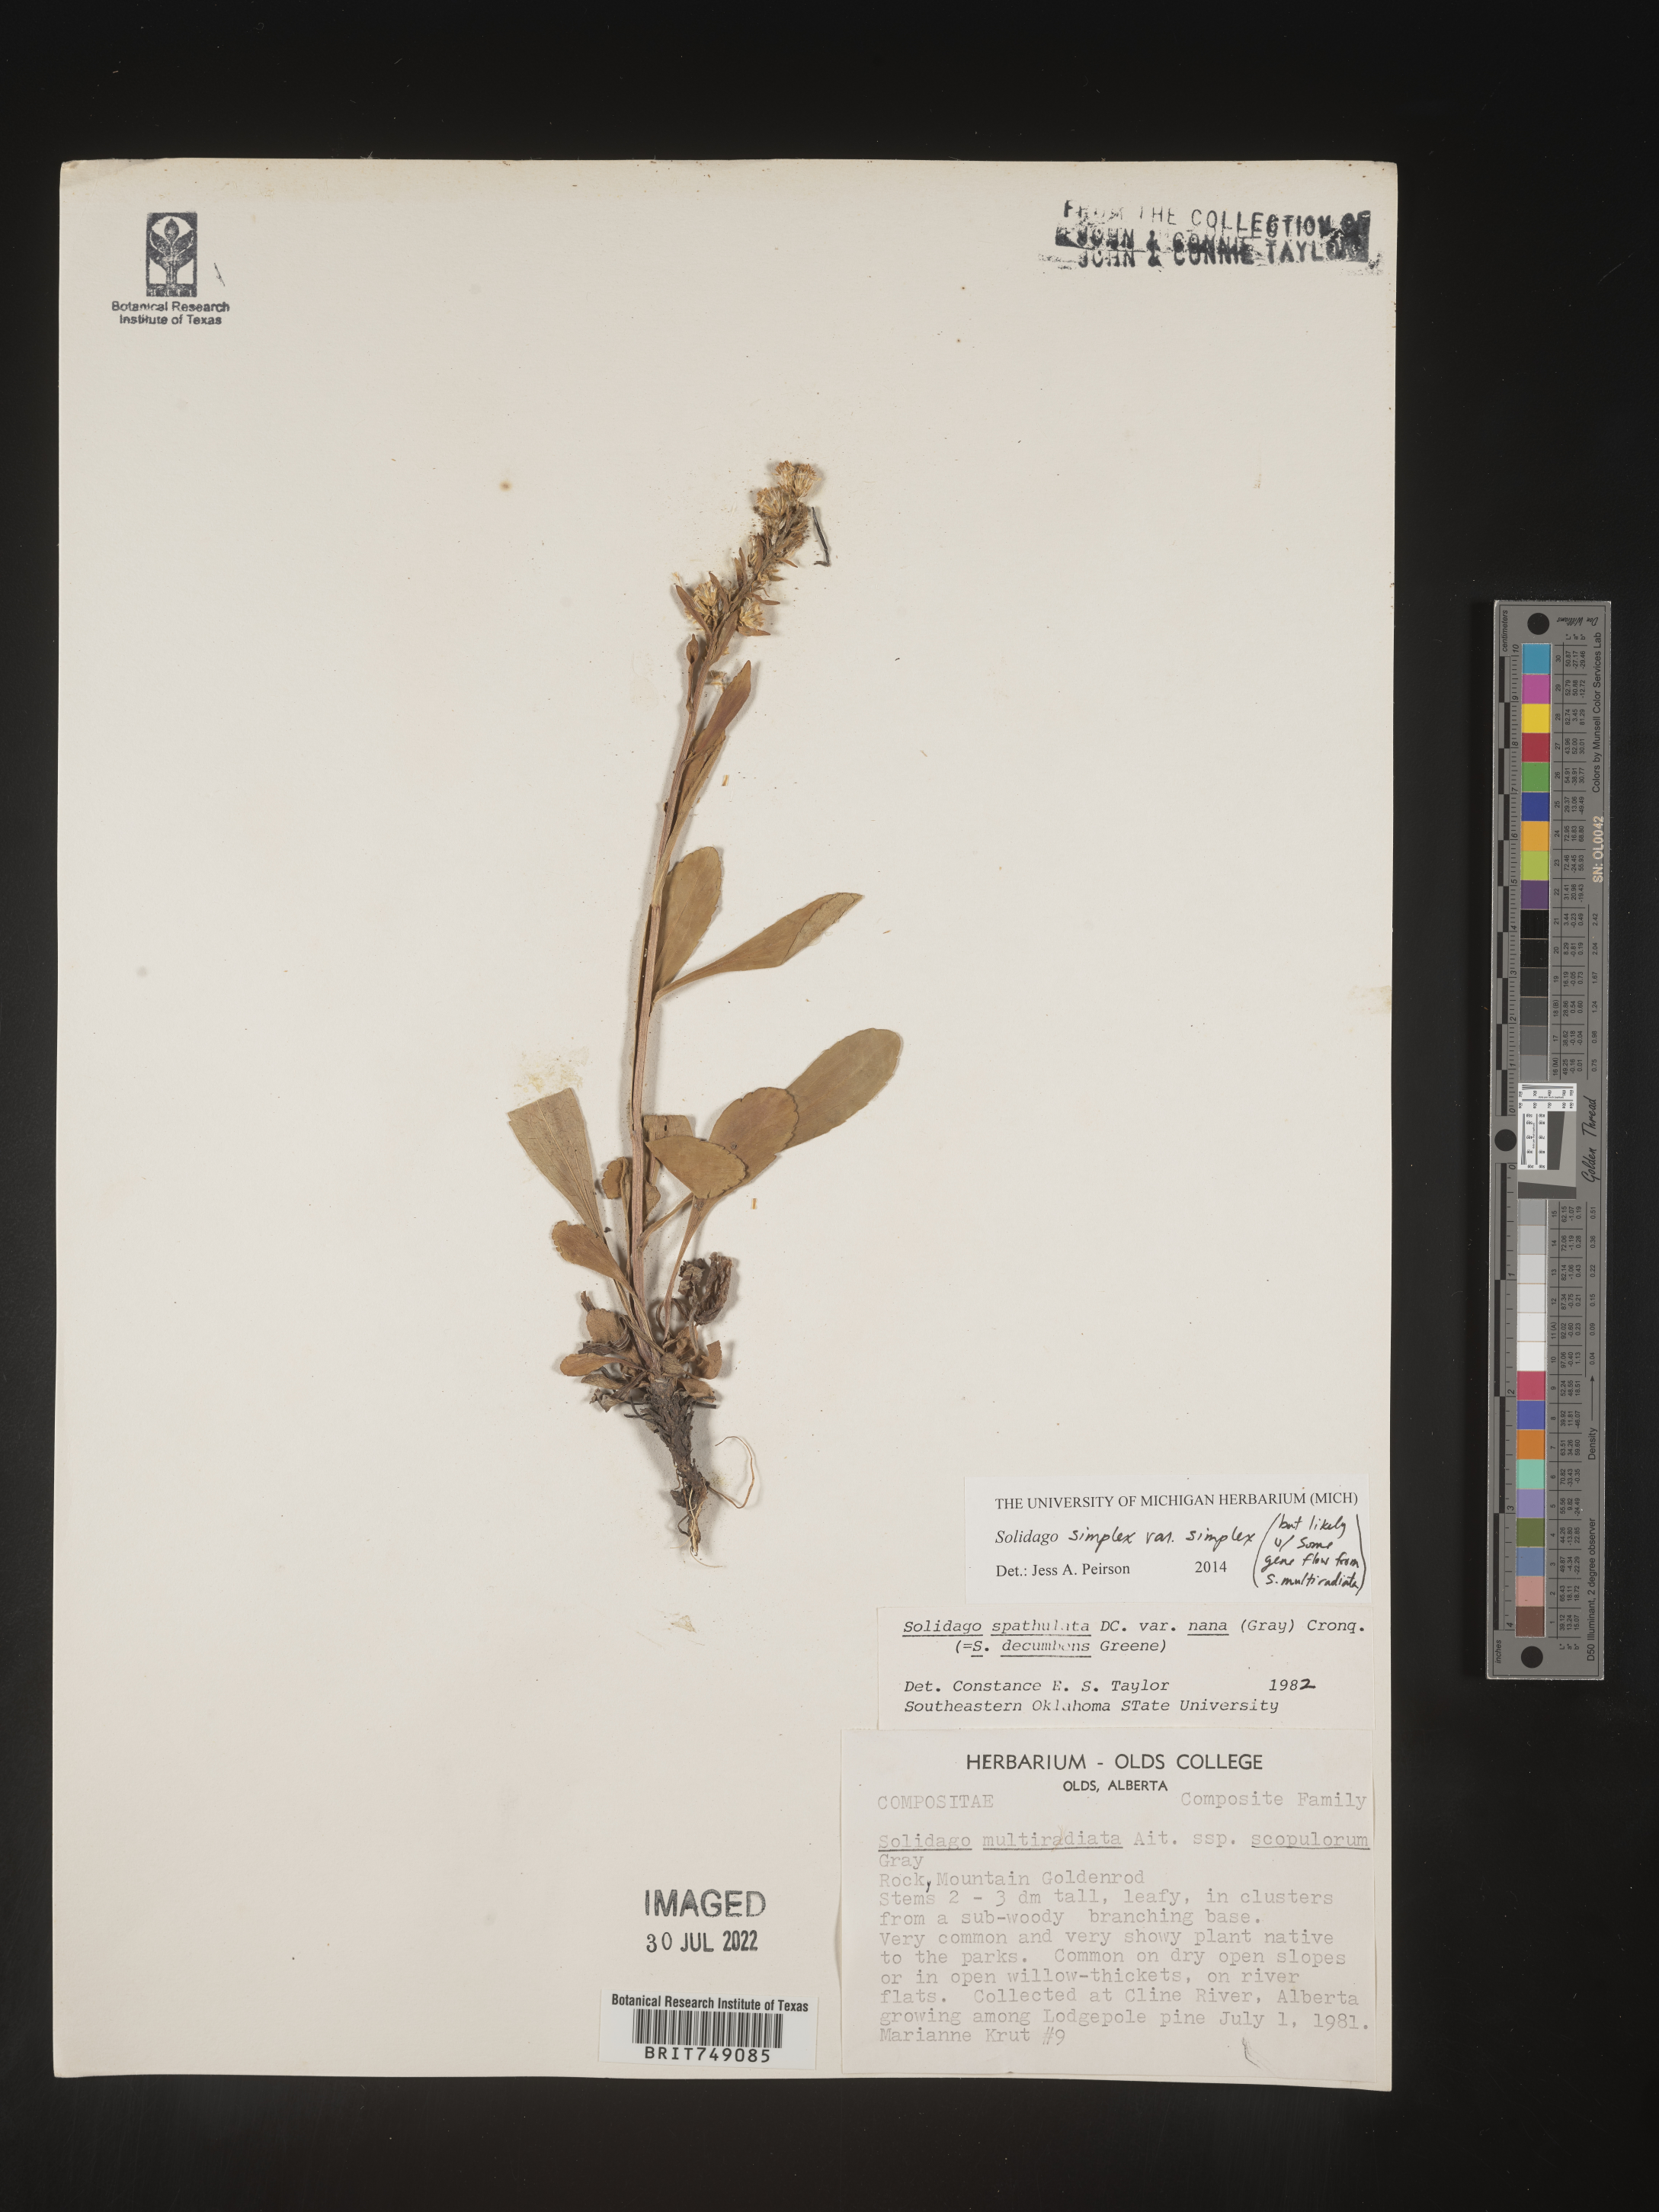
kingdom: Plantae
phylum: Tracheophyta
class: Magnoliopsida
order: Asterales
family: Asteraceae
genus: Solidago
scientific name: Solidago simplex
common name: Sticky goldenrod
